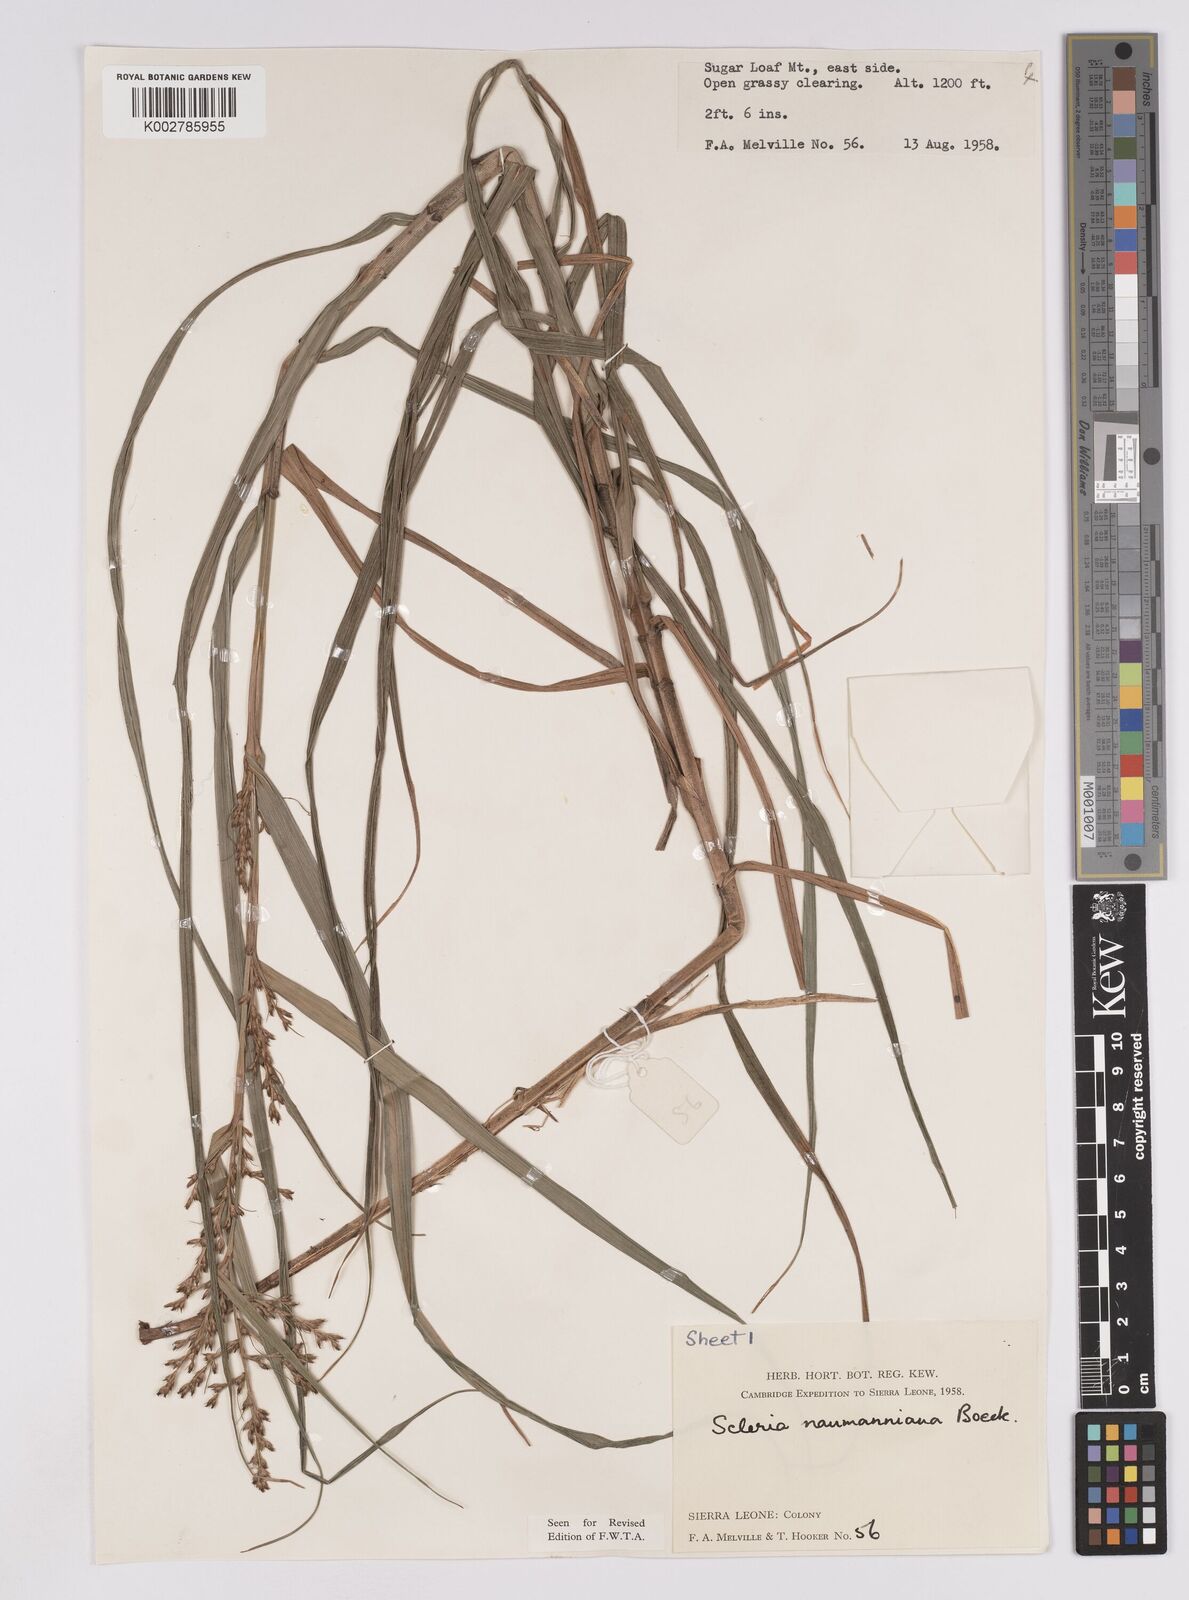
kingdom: Plantae
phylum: Tracheophyta
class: Liliopsida
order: Poales
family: Cyperaceae
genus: Scleria
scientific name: Scleria naumanniana
